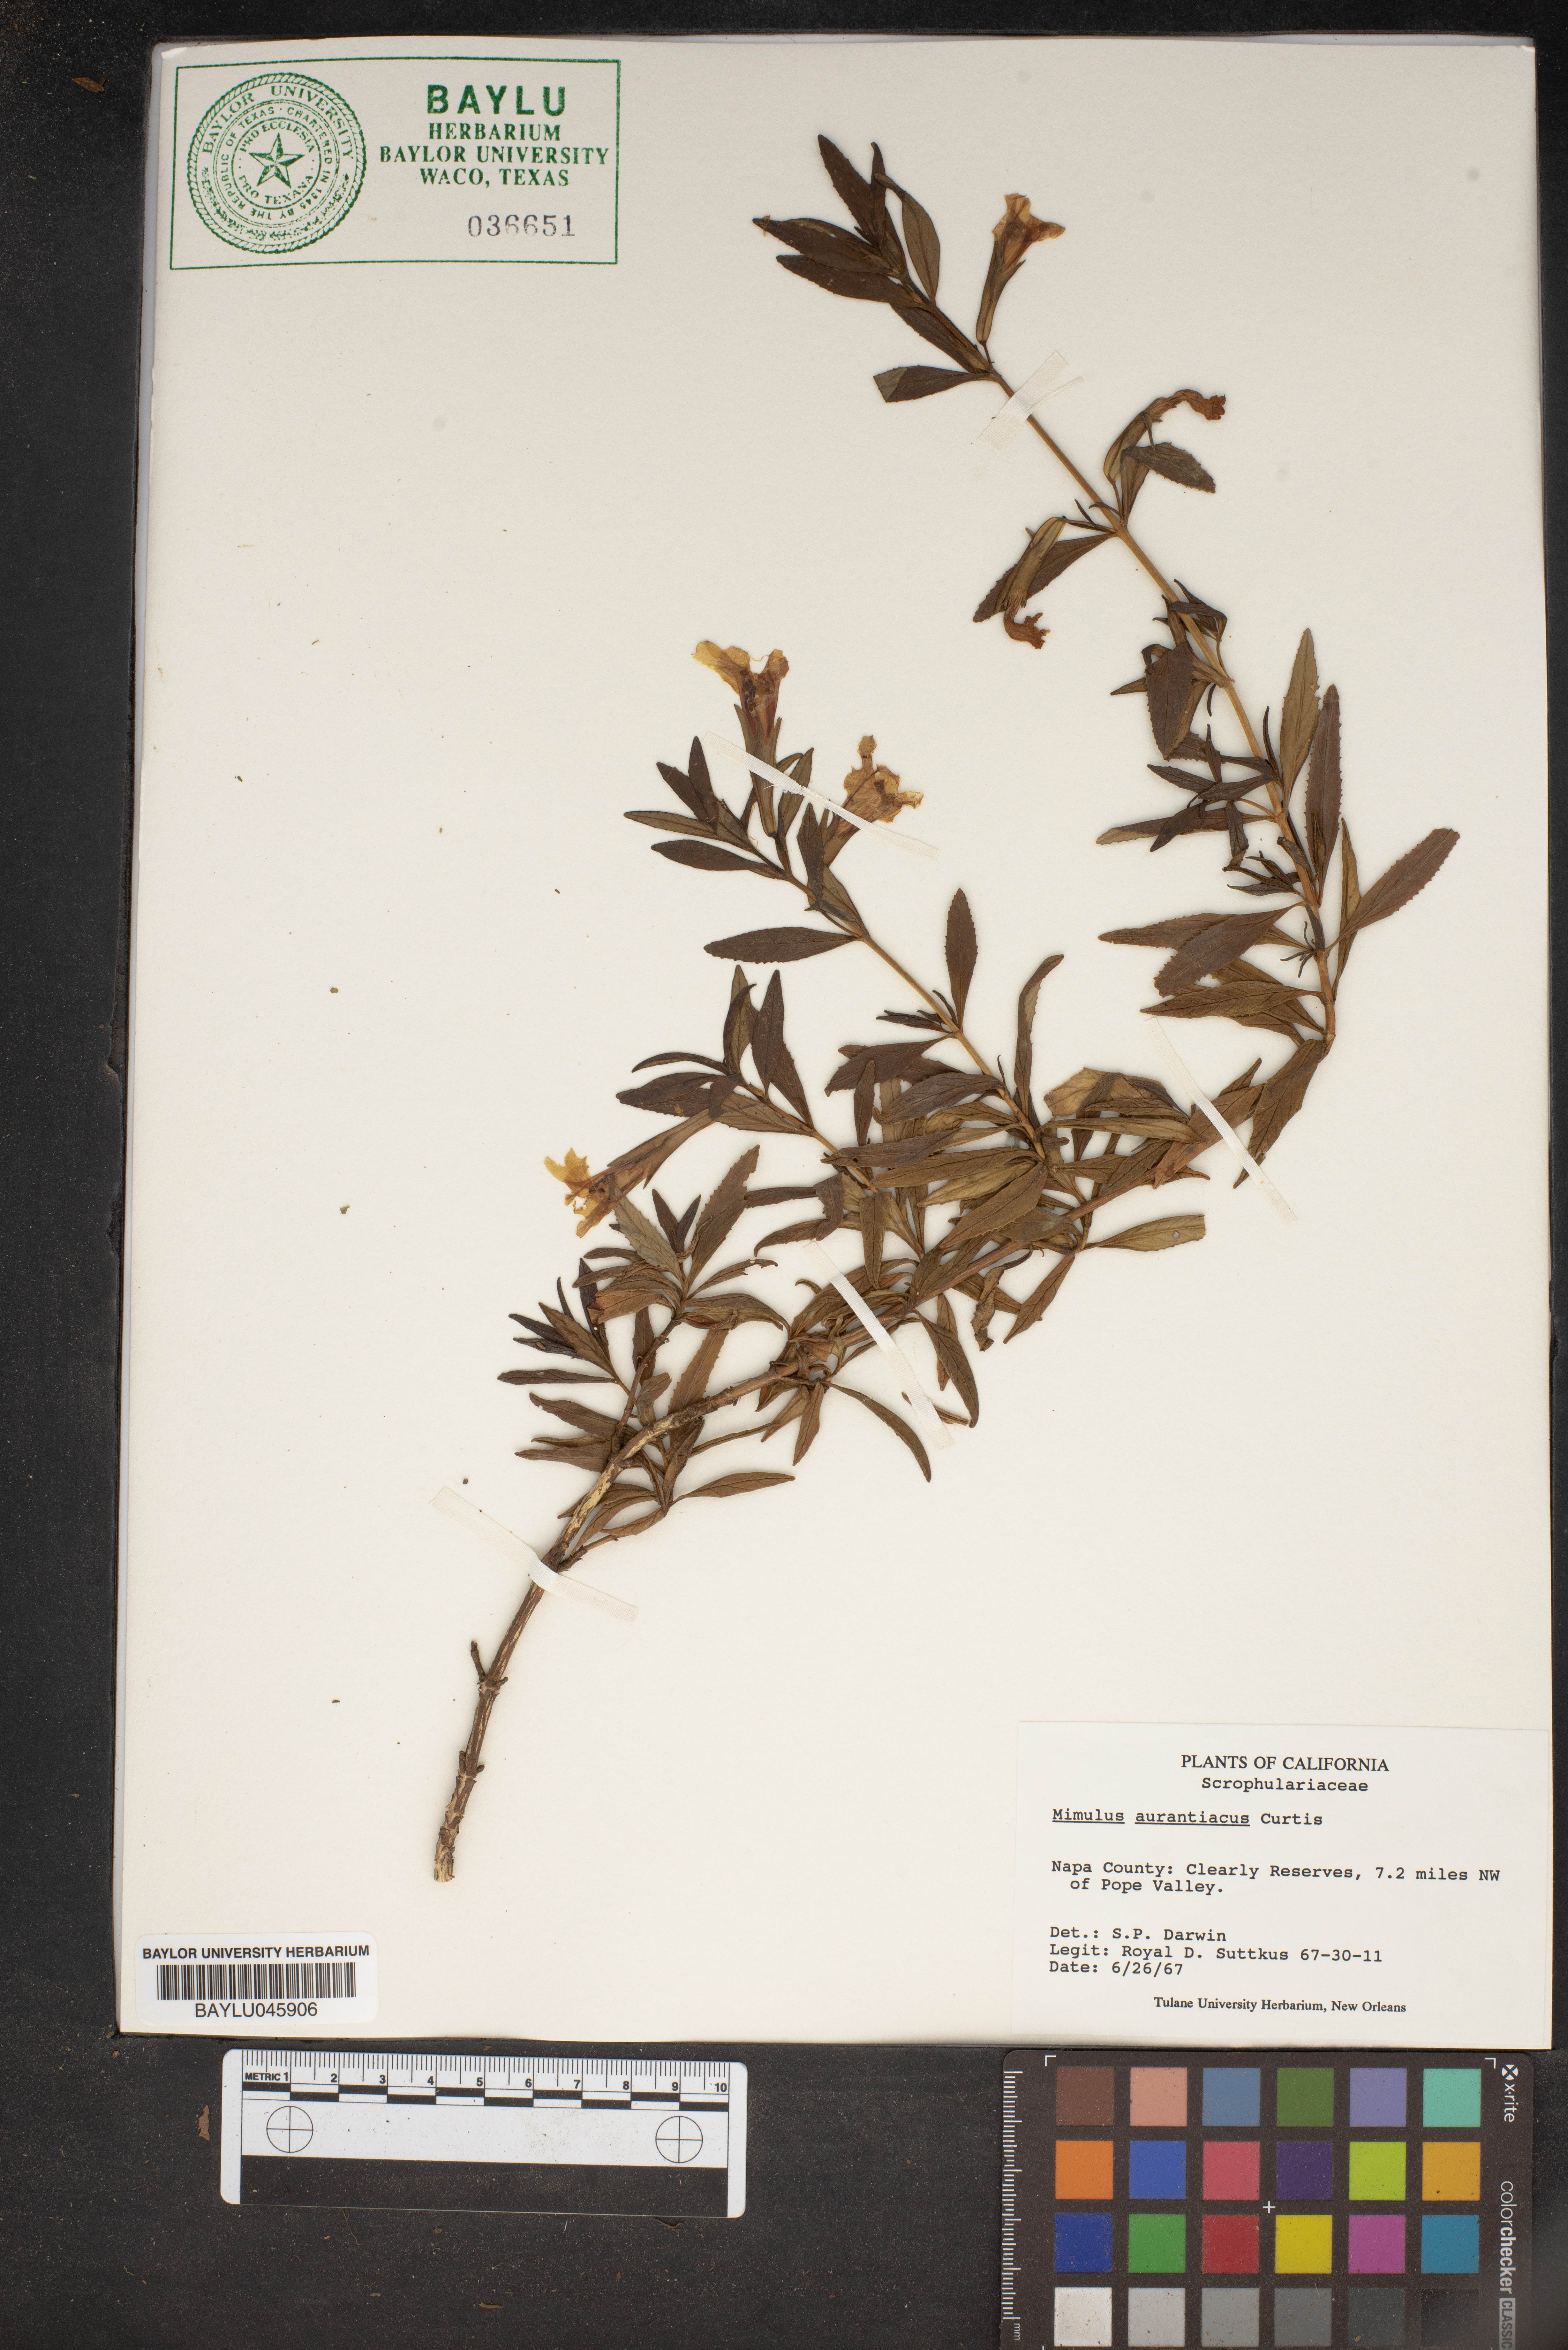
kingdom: Plantae
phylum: Tracheophyta
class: Magnoliopsida
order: Lamiales
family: Phrymaceae
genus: Mimulus
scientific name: Mimulus aurantiacus
